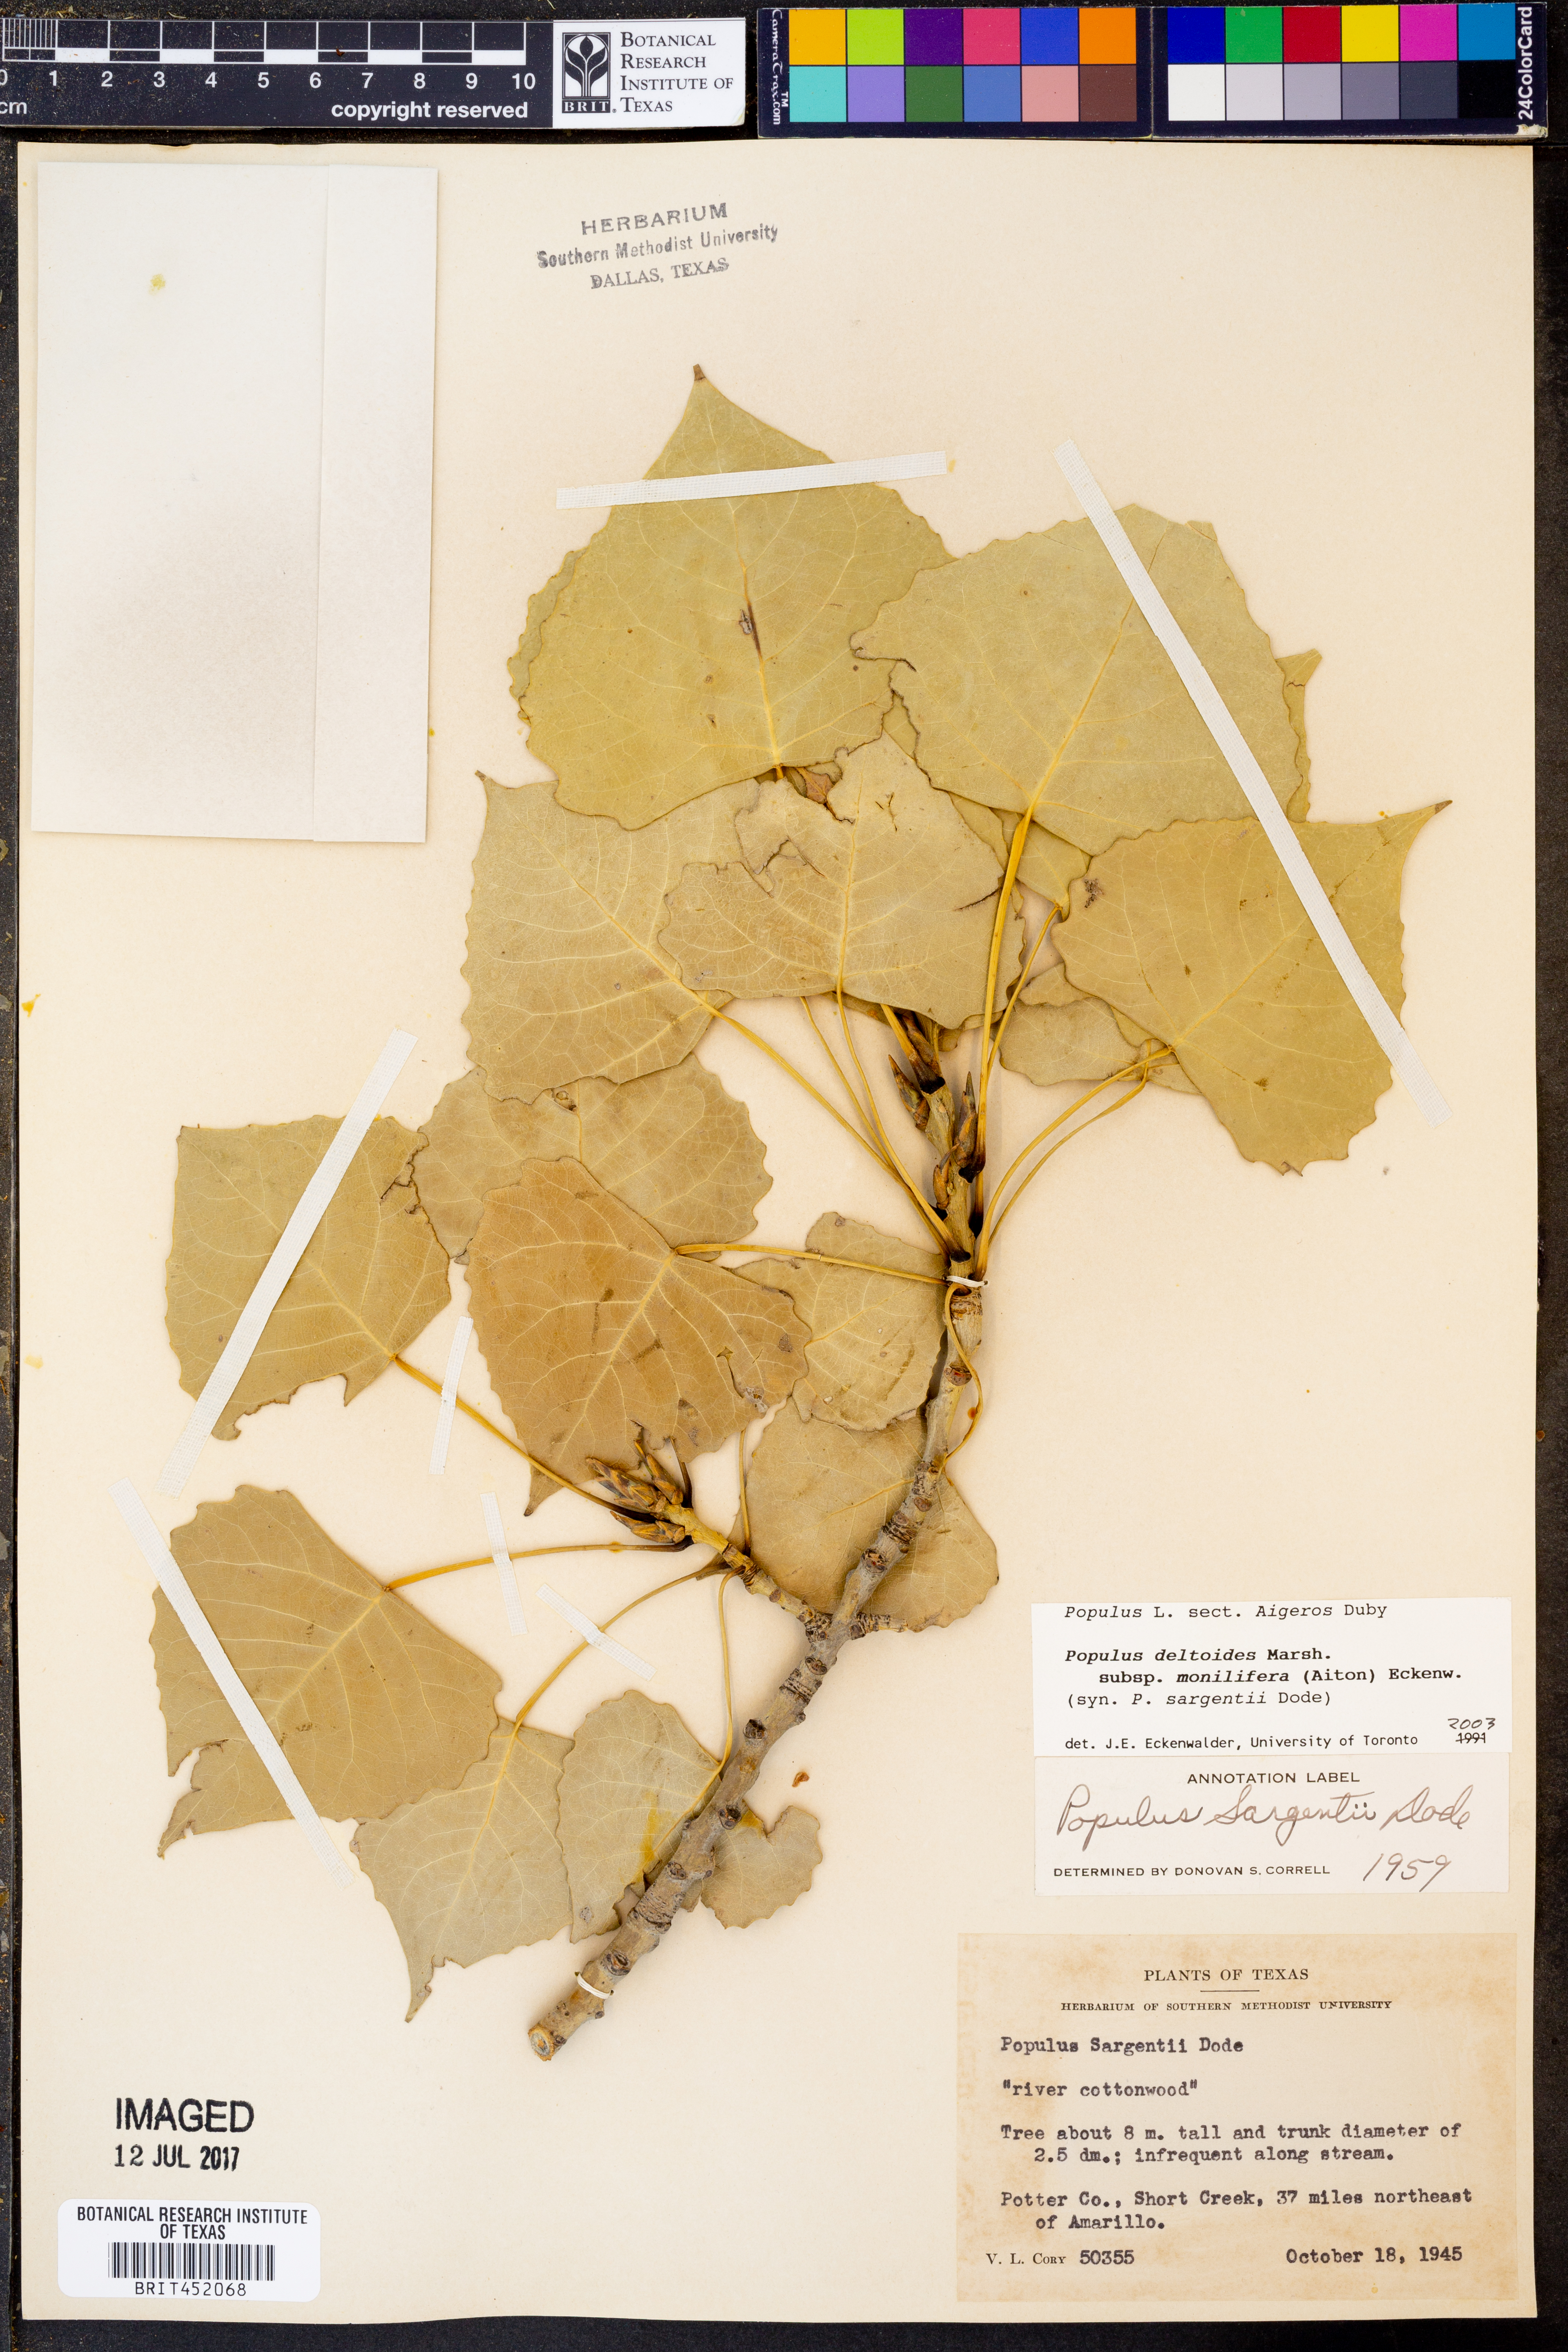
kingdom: Plantae
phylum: Tracheophyta
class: Magnoliopsida
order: Malpighiales
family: Salicaceae
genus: Populus
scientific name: Populus deltoides
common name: Eastern cottonwood
